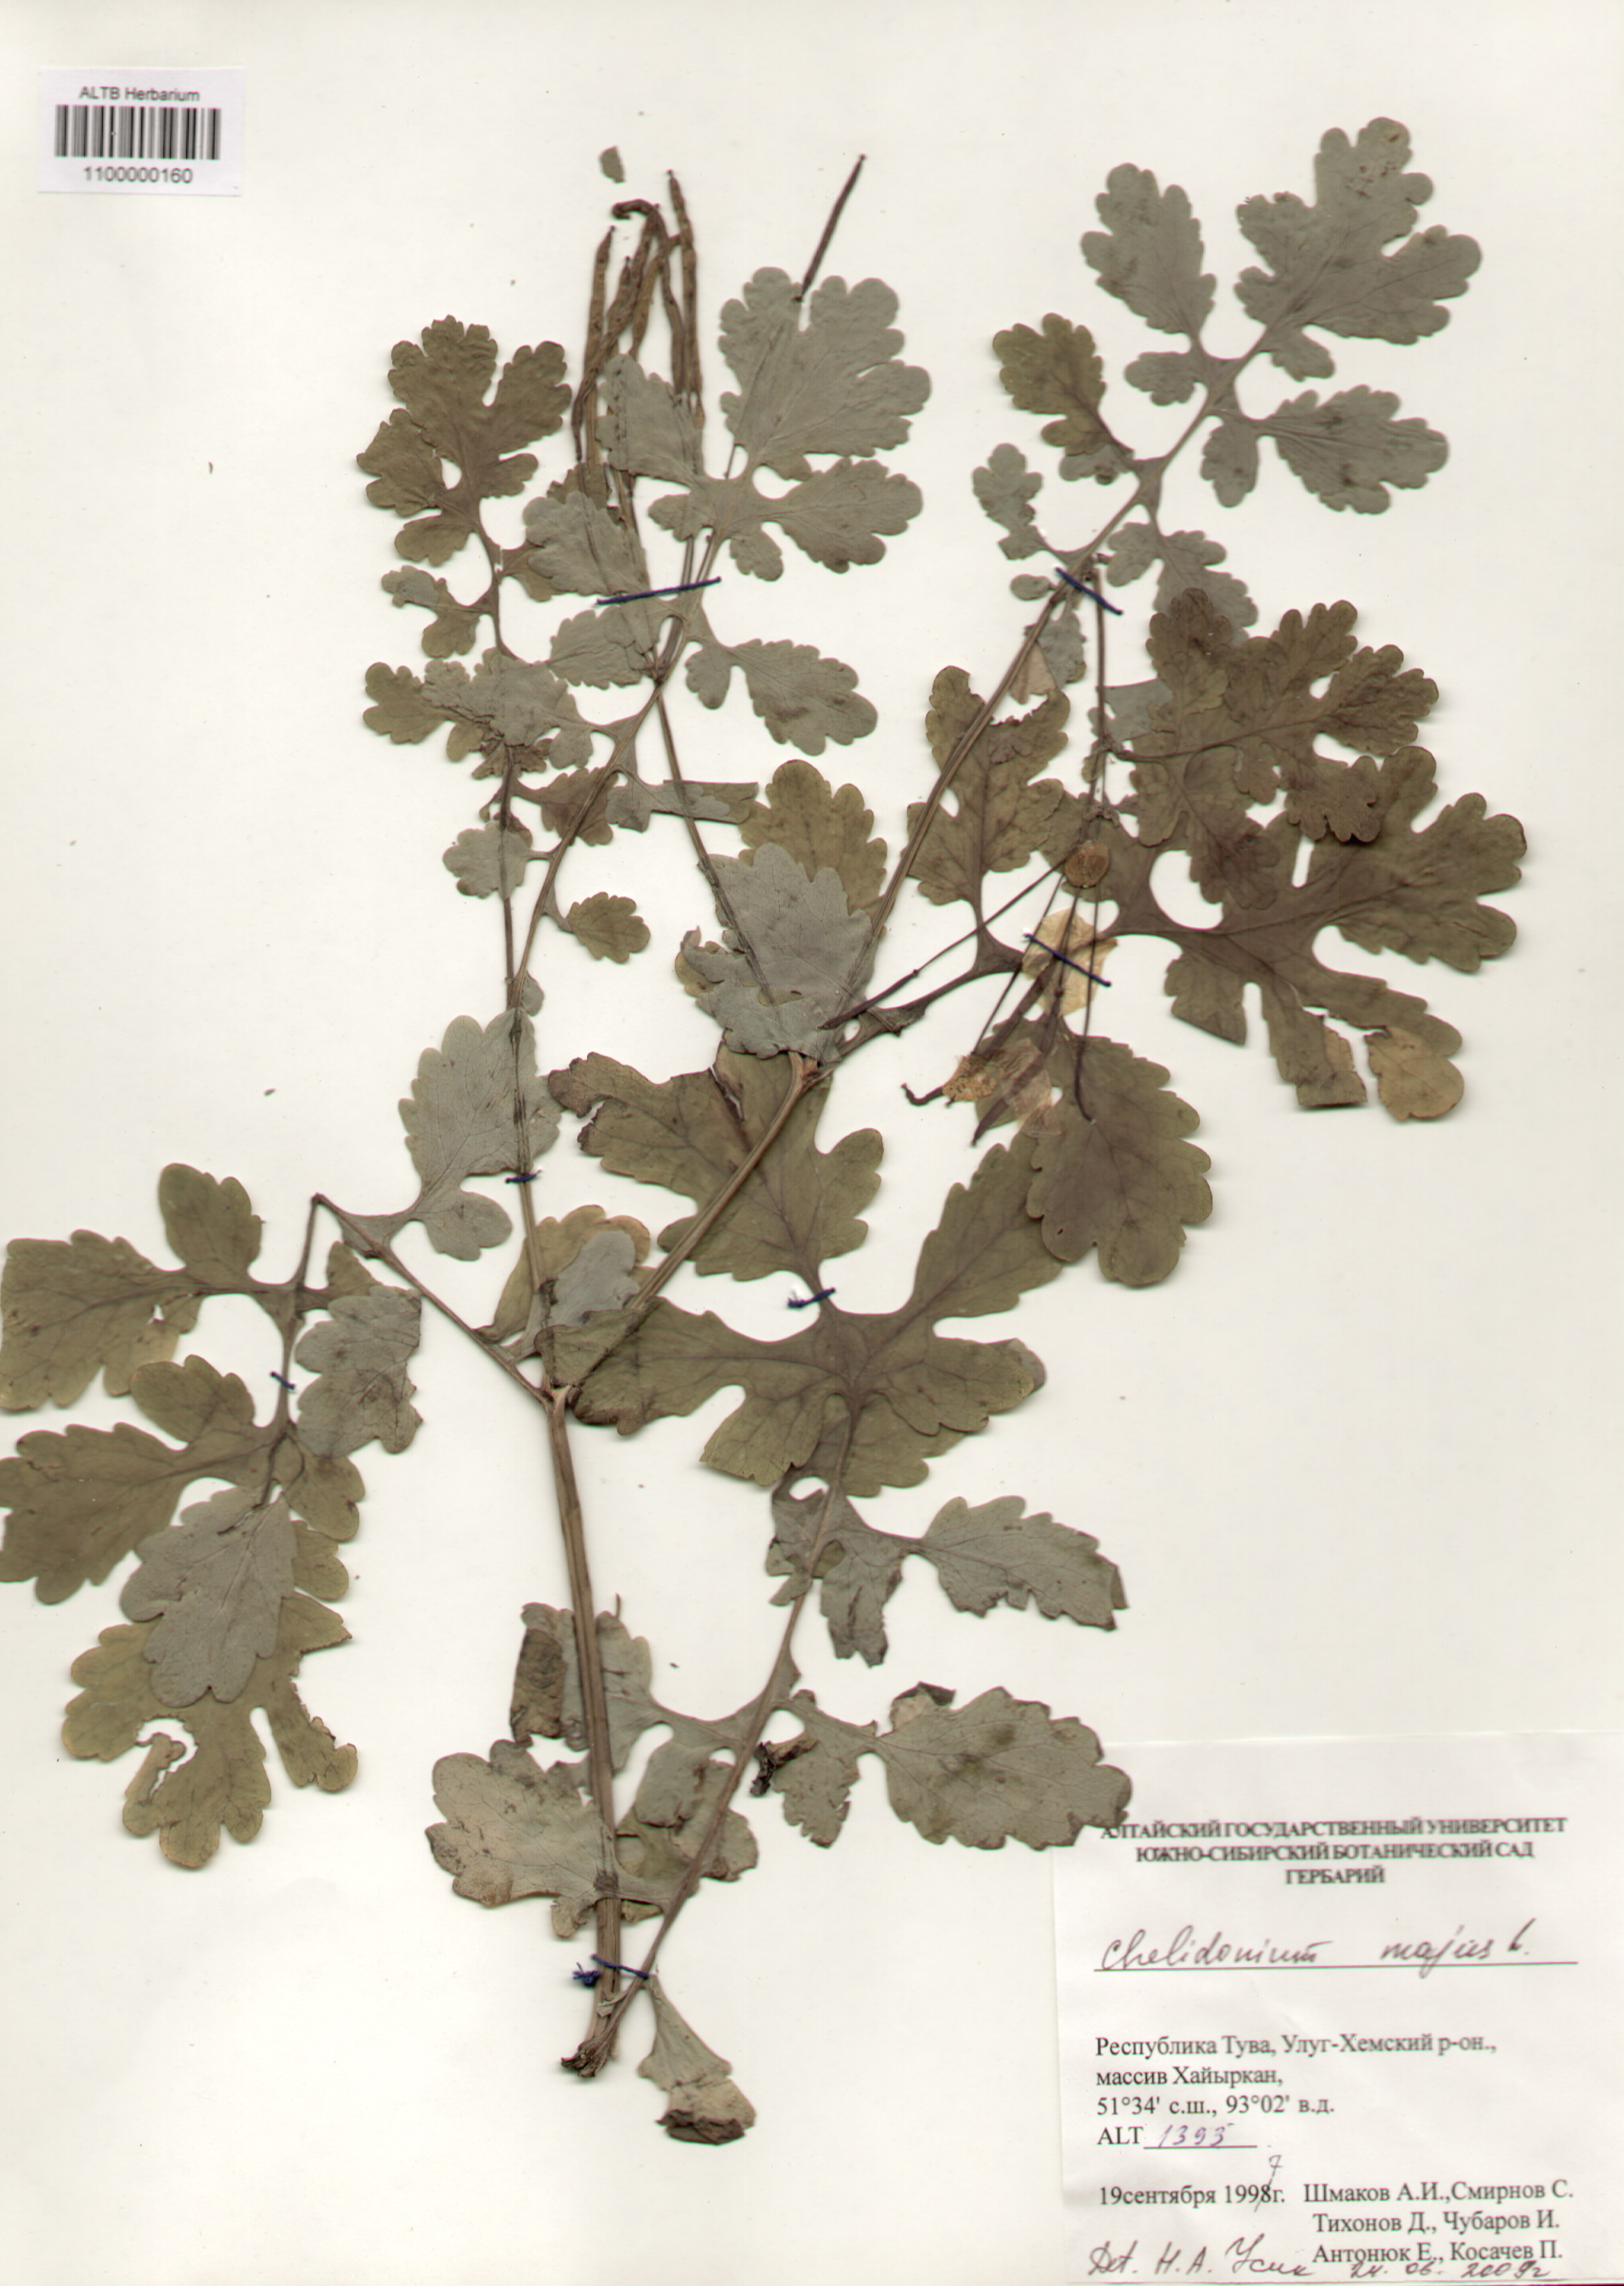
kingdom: Plantae
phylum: Tracheophyta
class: Magnoliopsida
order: Ranunculales
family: Papaveraceae
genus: Chelidonium
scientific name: Chelidonium majus
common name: Greater celandine
